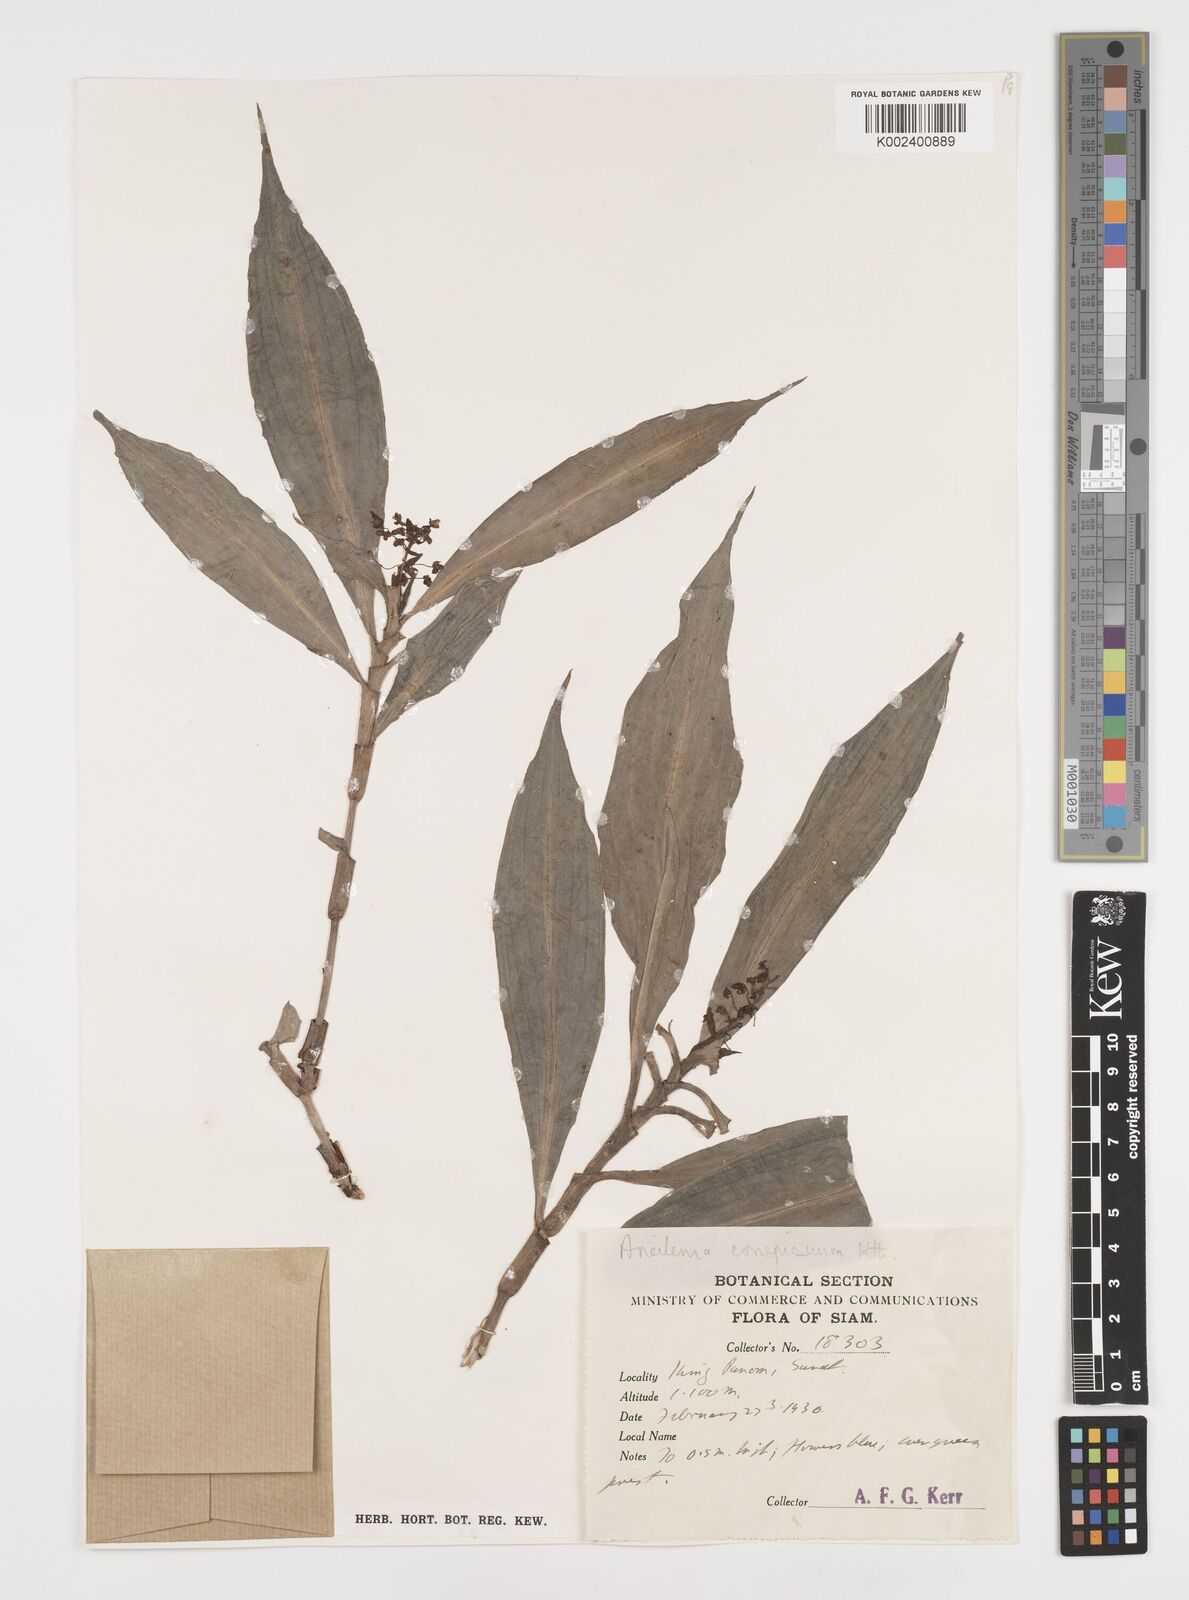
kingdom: Plantae
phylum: Tracheophyta
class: Liliopsida
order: Commelinales
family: Commelinaceae
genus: Dictyospermum
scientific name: Dictyospermum conspicuum
